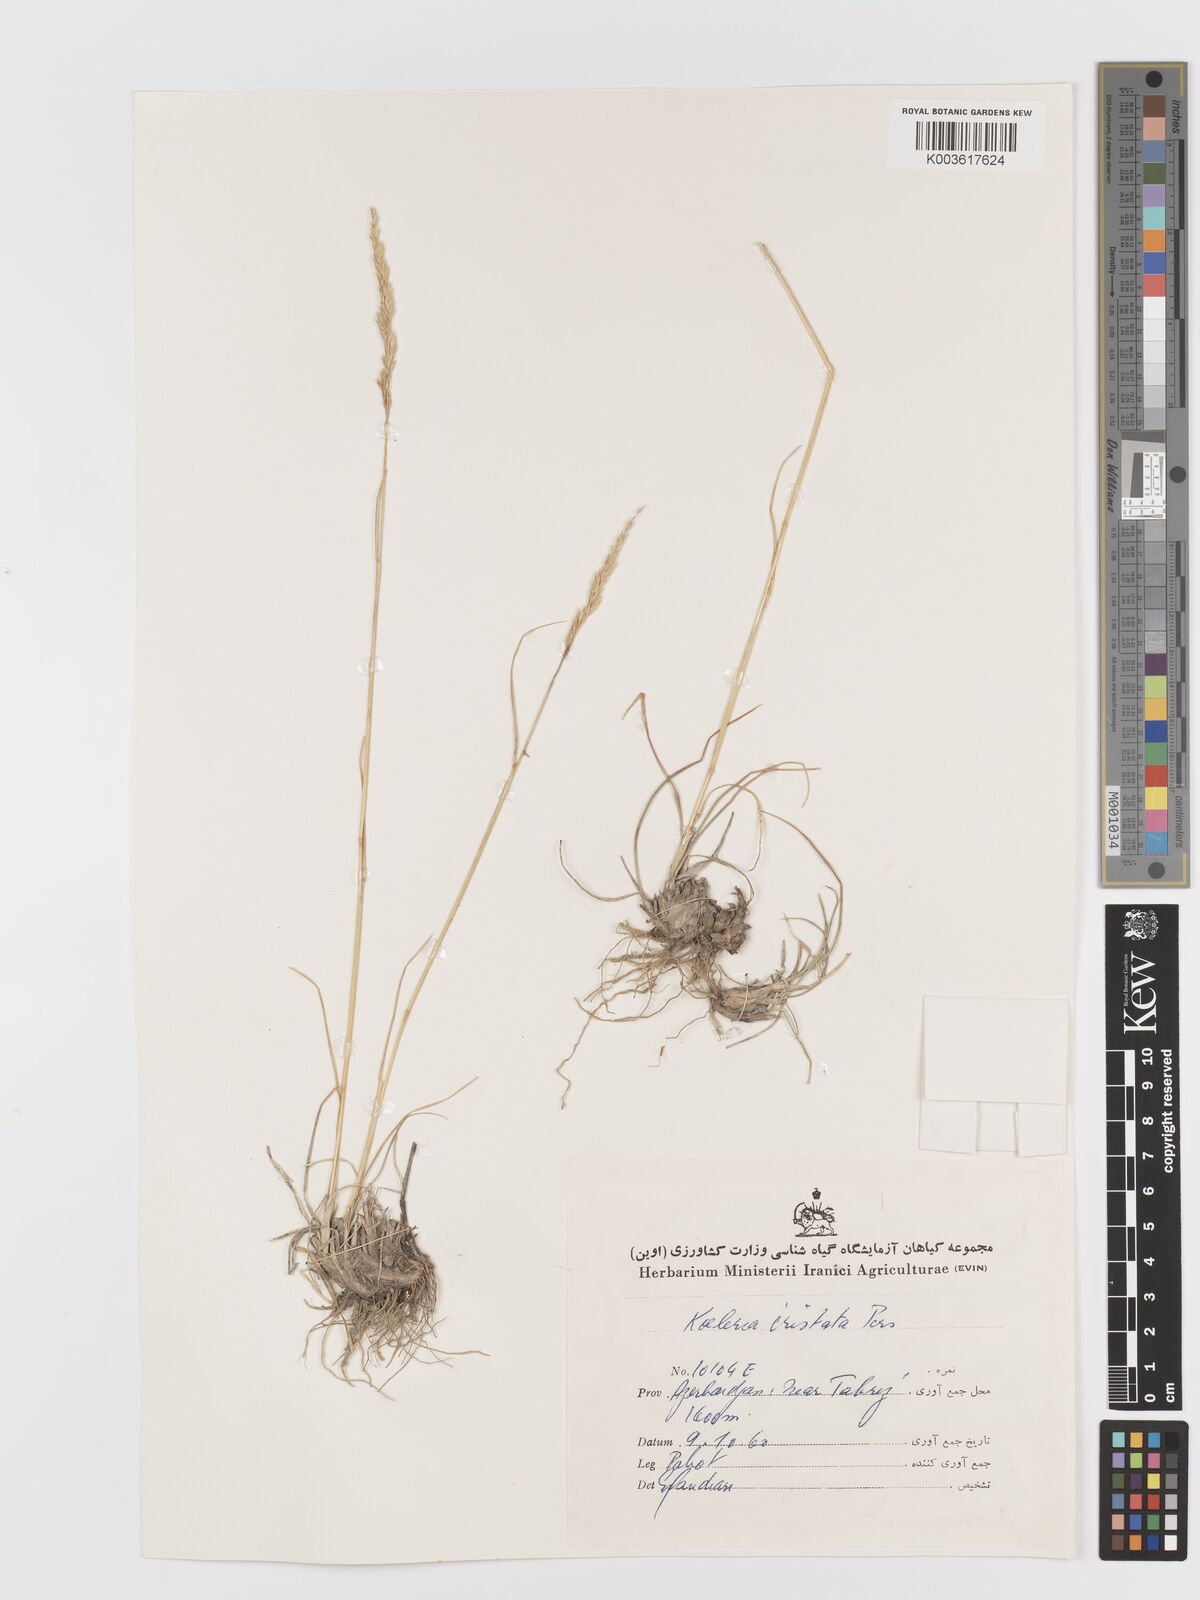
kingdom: Plantae
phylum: Tracheophyta
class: Liliopsida
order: Poales
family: Poaceae
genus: Koeleria
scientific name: Koeleria macrantha
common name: Crested hair-grass
